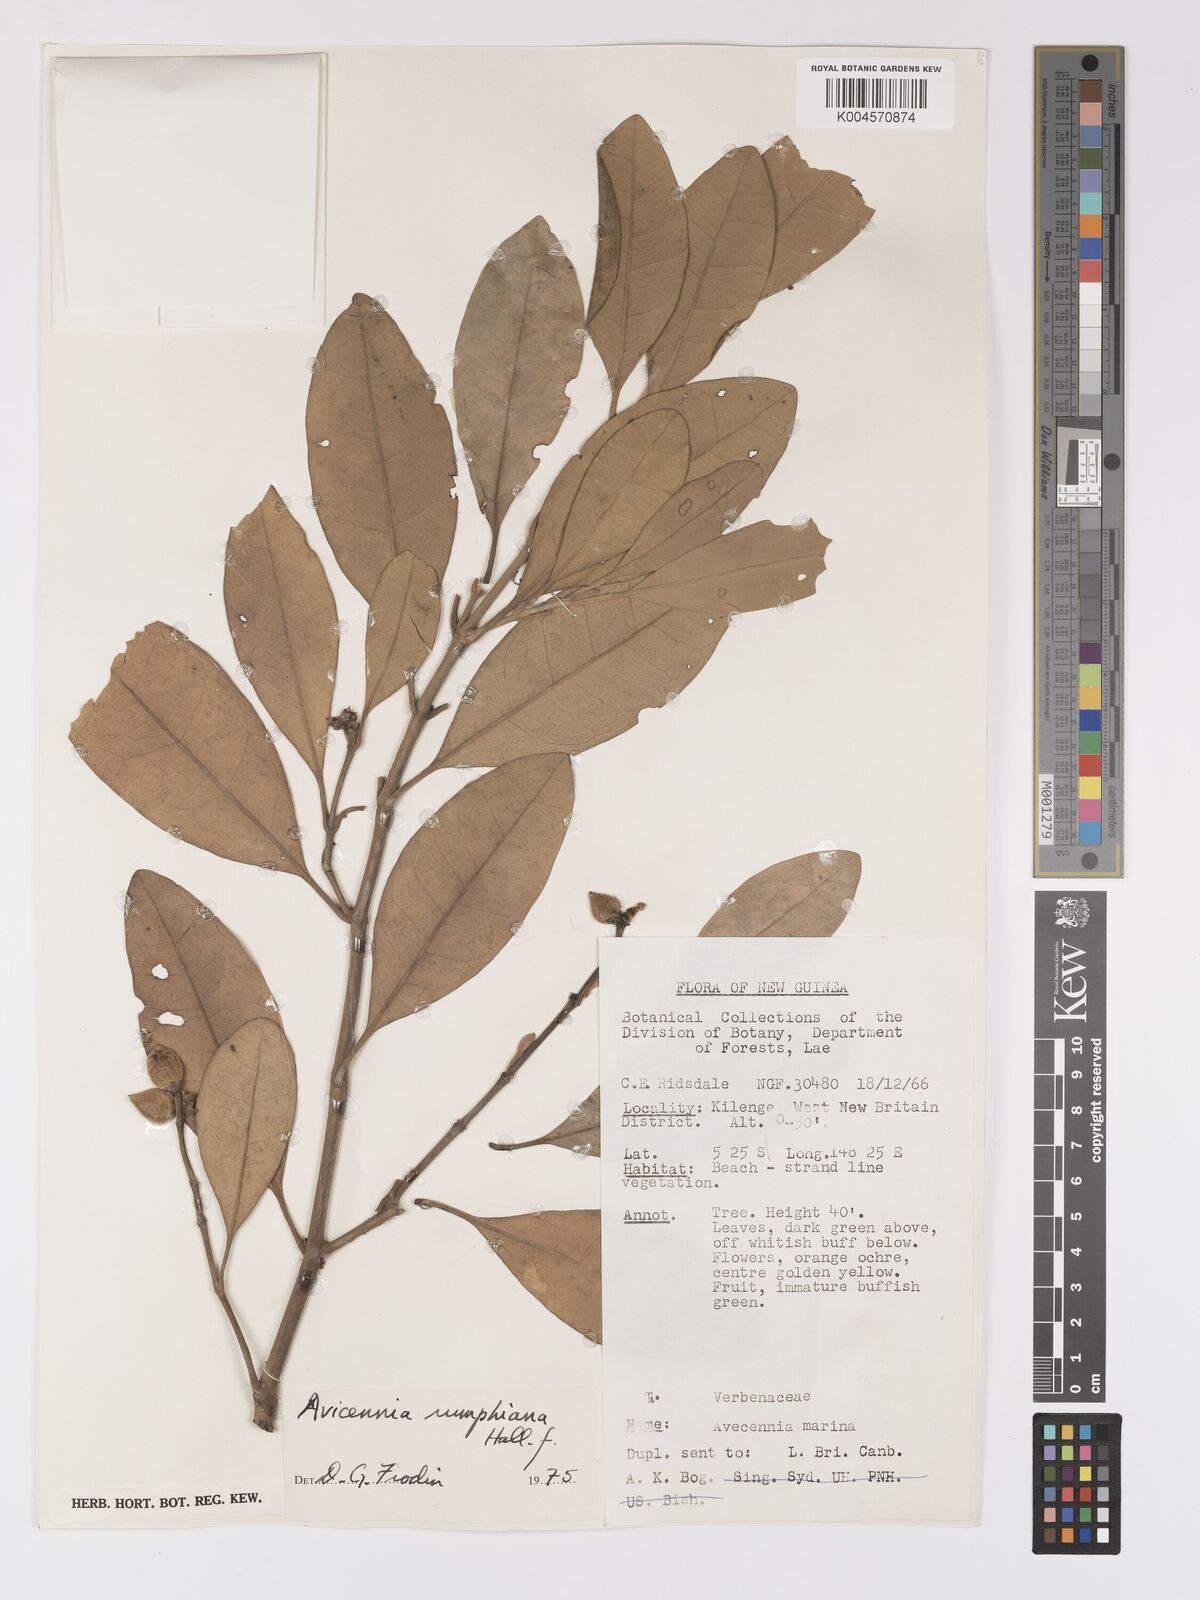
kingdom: Plantae
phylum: Tracheophyta
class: Magnoliopsida
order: Lamiales
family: Acanthaceae
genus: Avicennia
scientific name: Avicennia marina
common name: Gray mangrove
